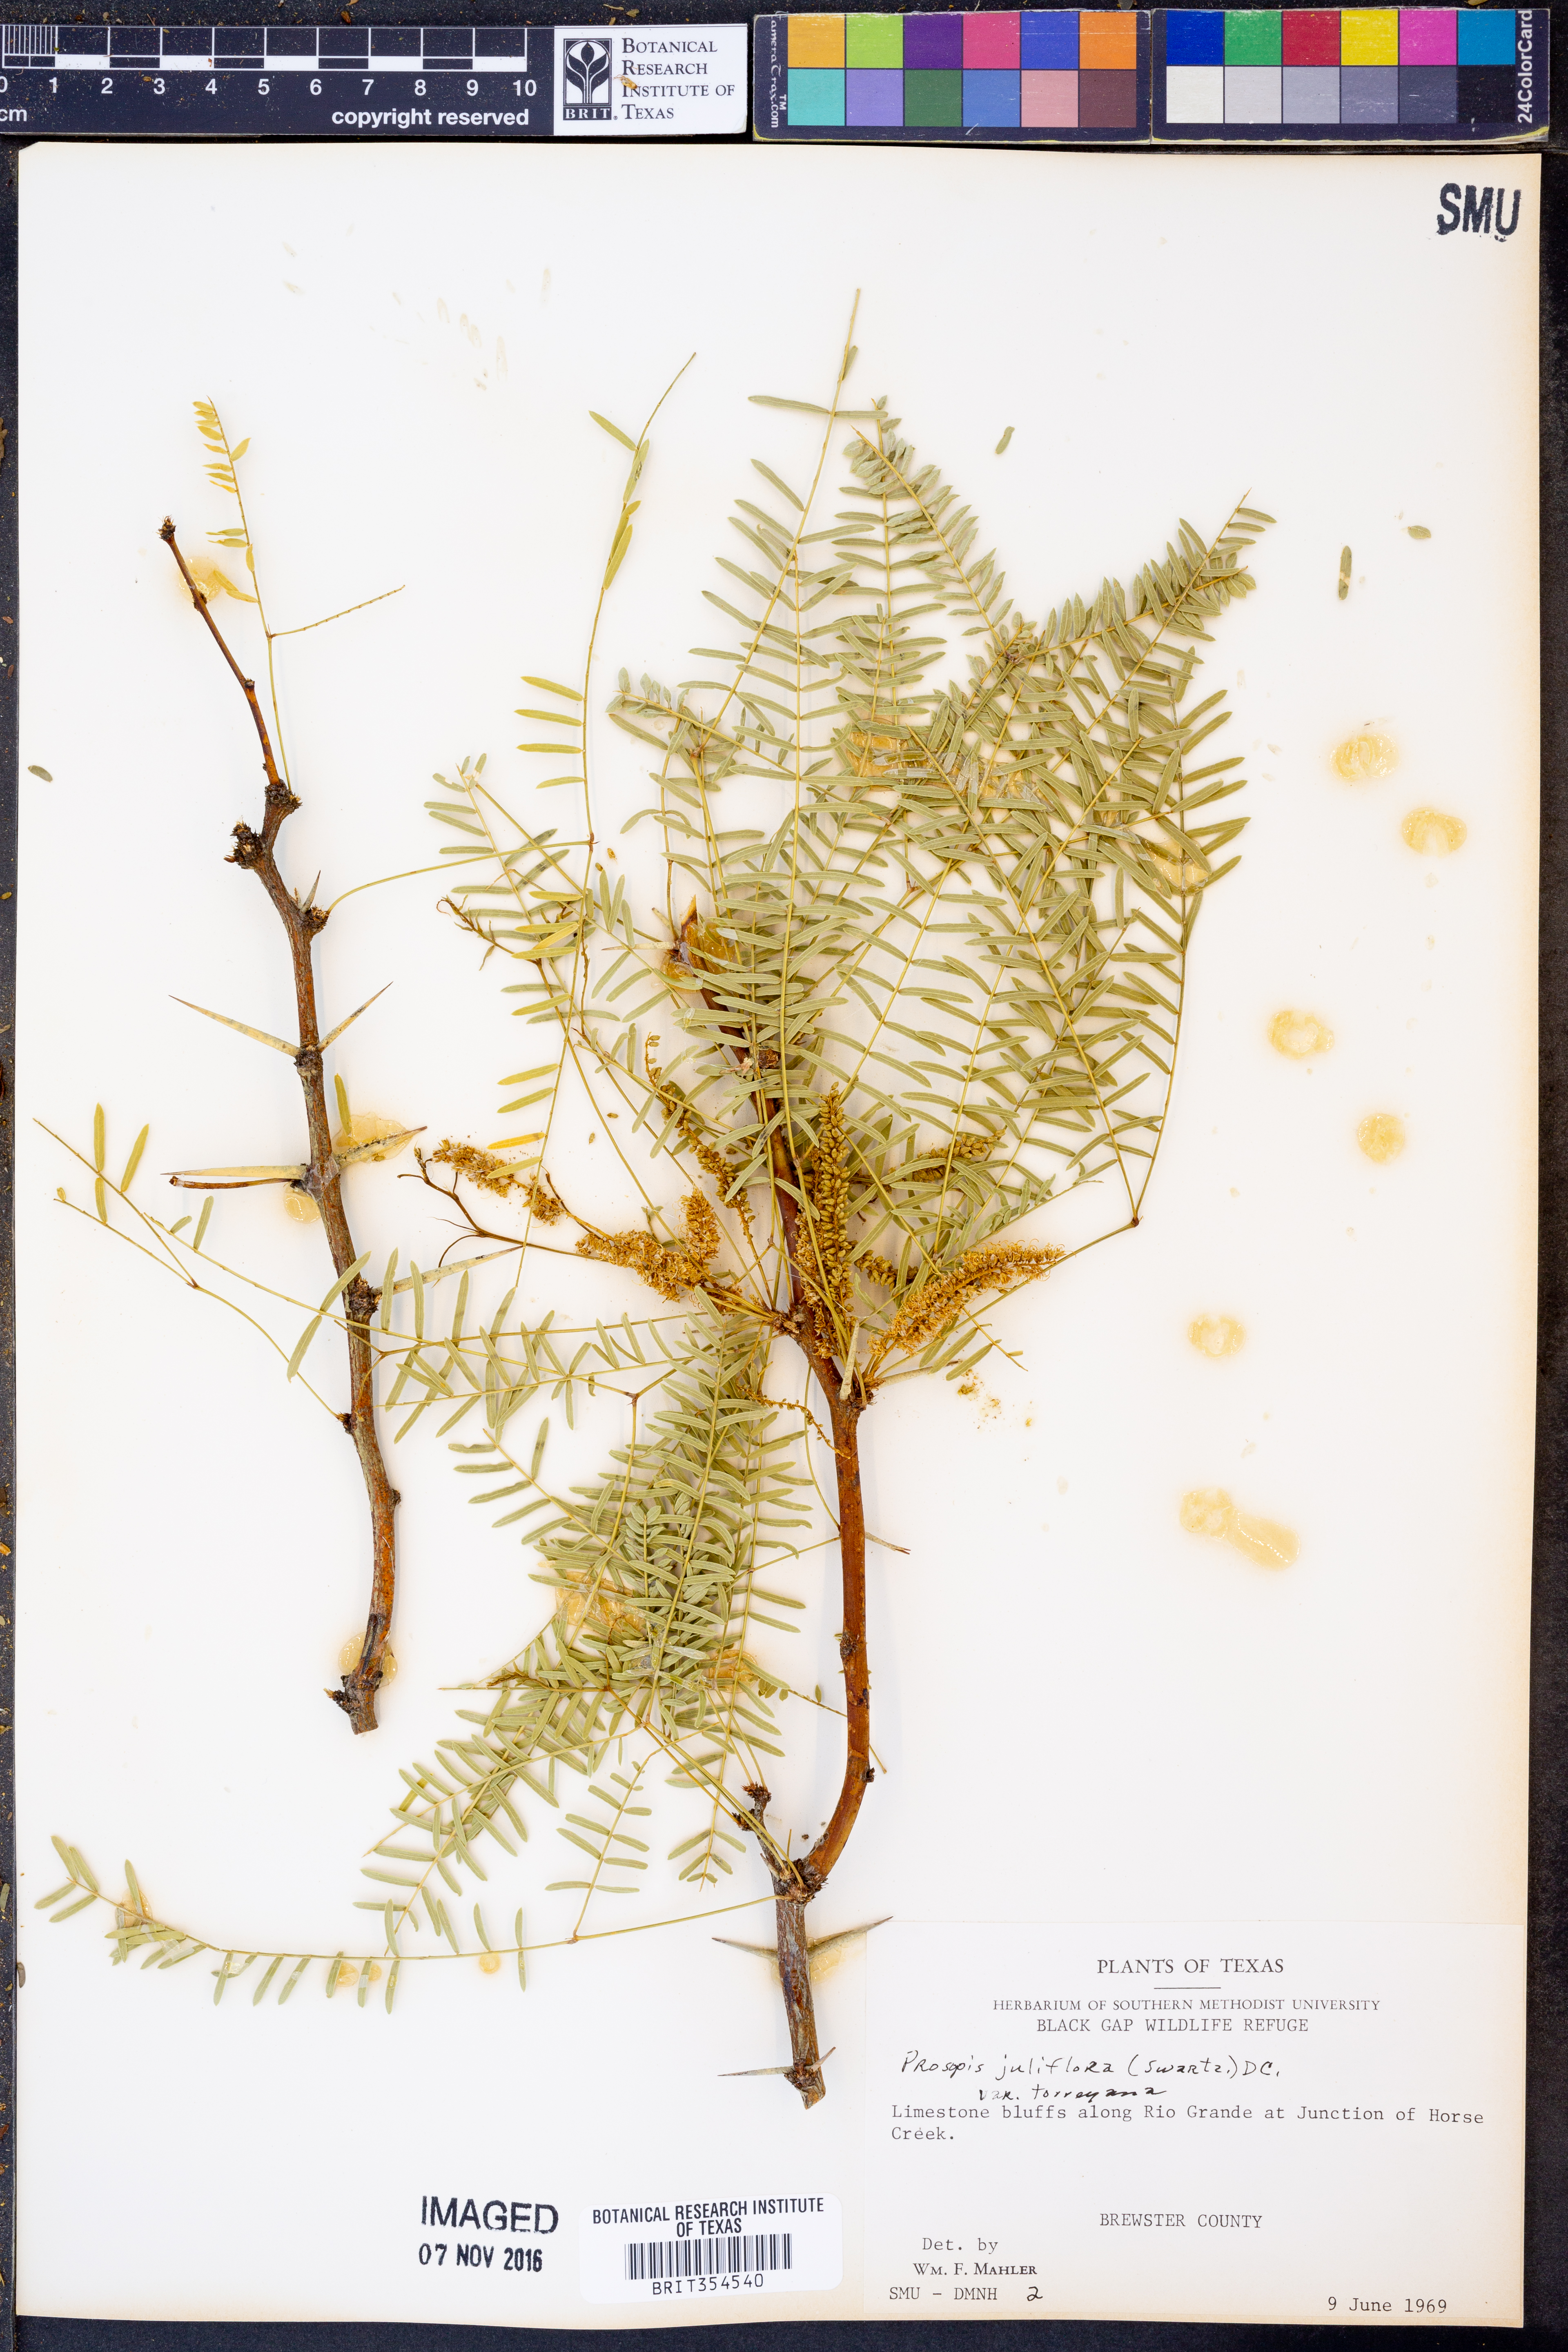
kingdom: Plantae
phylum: Tracheophyta
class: Magnoliopsida
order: Fabales
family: Fabaceae
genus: Prosopis
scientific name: Prosopis glandulosa
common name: Honey mesquite
